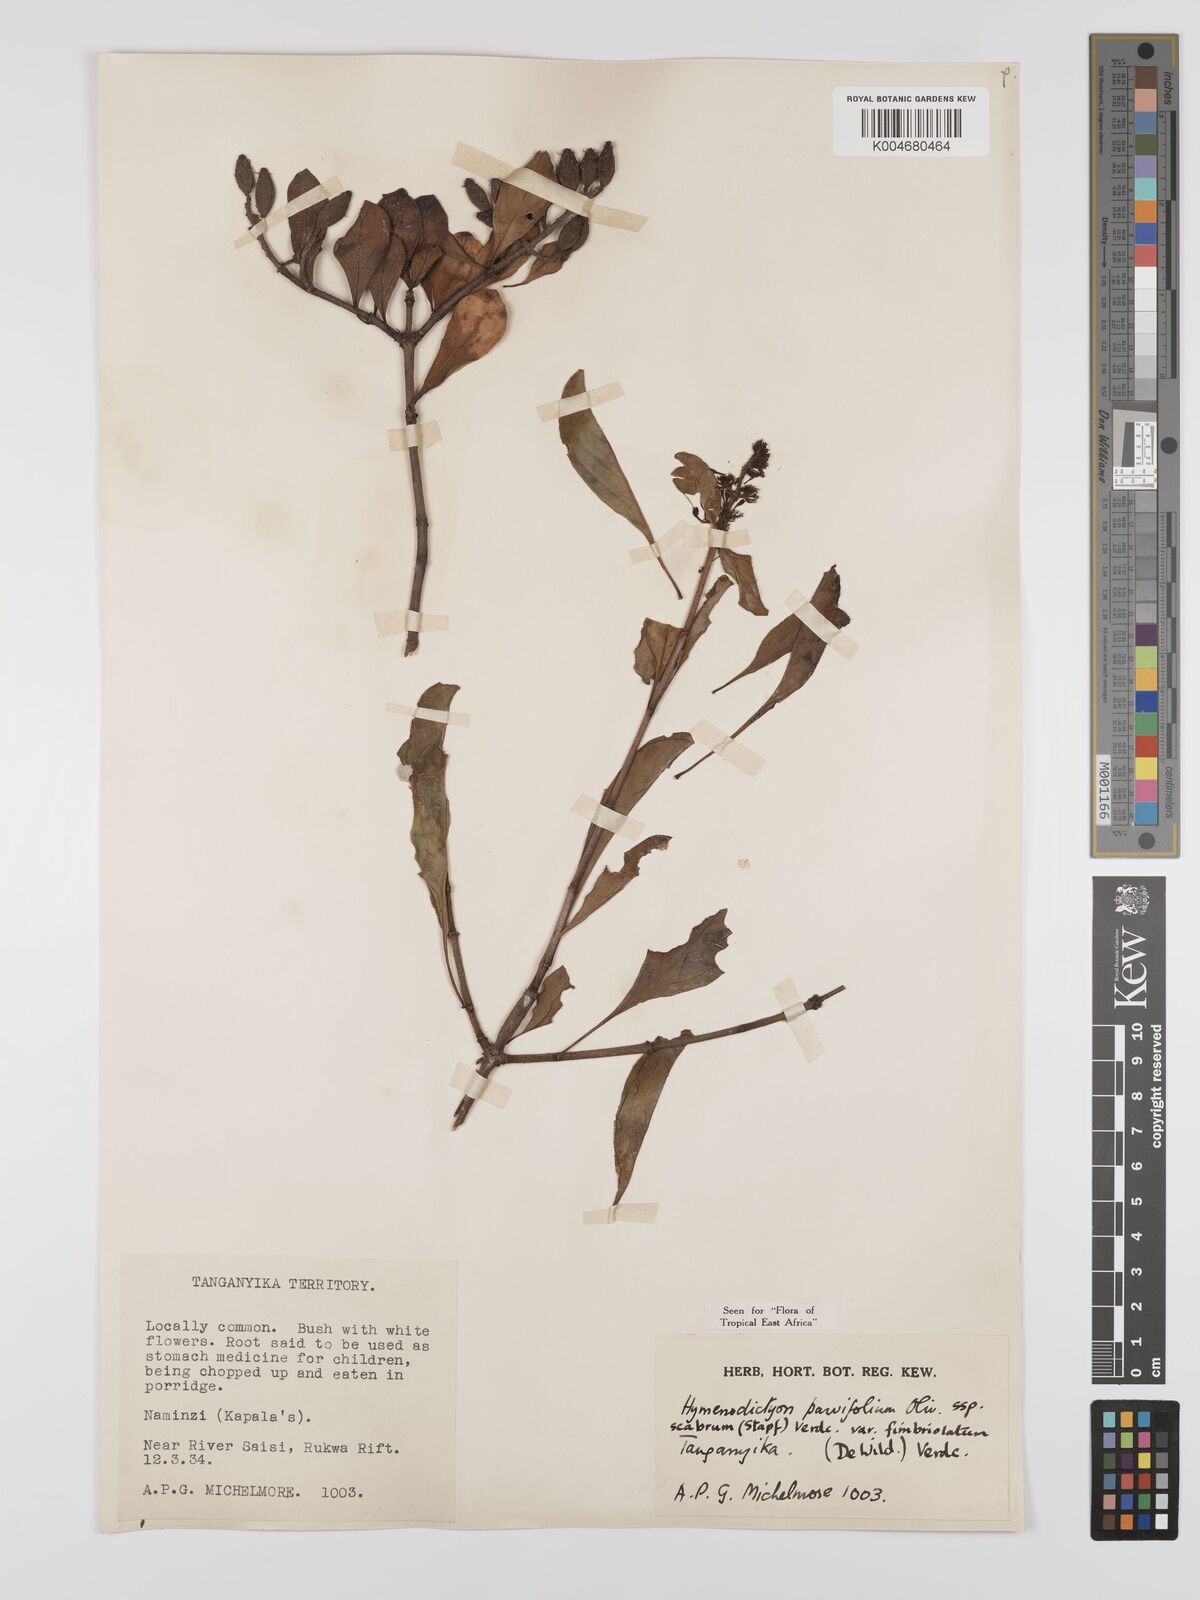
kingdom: Plantae
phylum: Tracheophyta
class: Magnoliopsida
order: Gentianales
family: Rubiaceae
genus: Hymenodictyon
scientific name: Hymenodictyon scabrum
